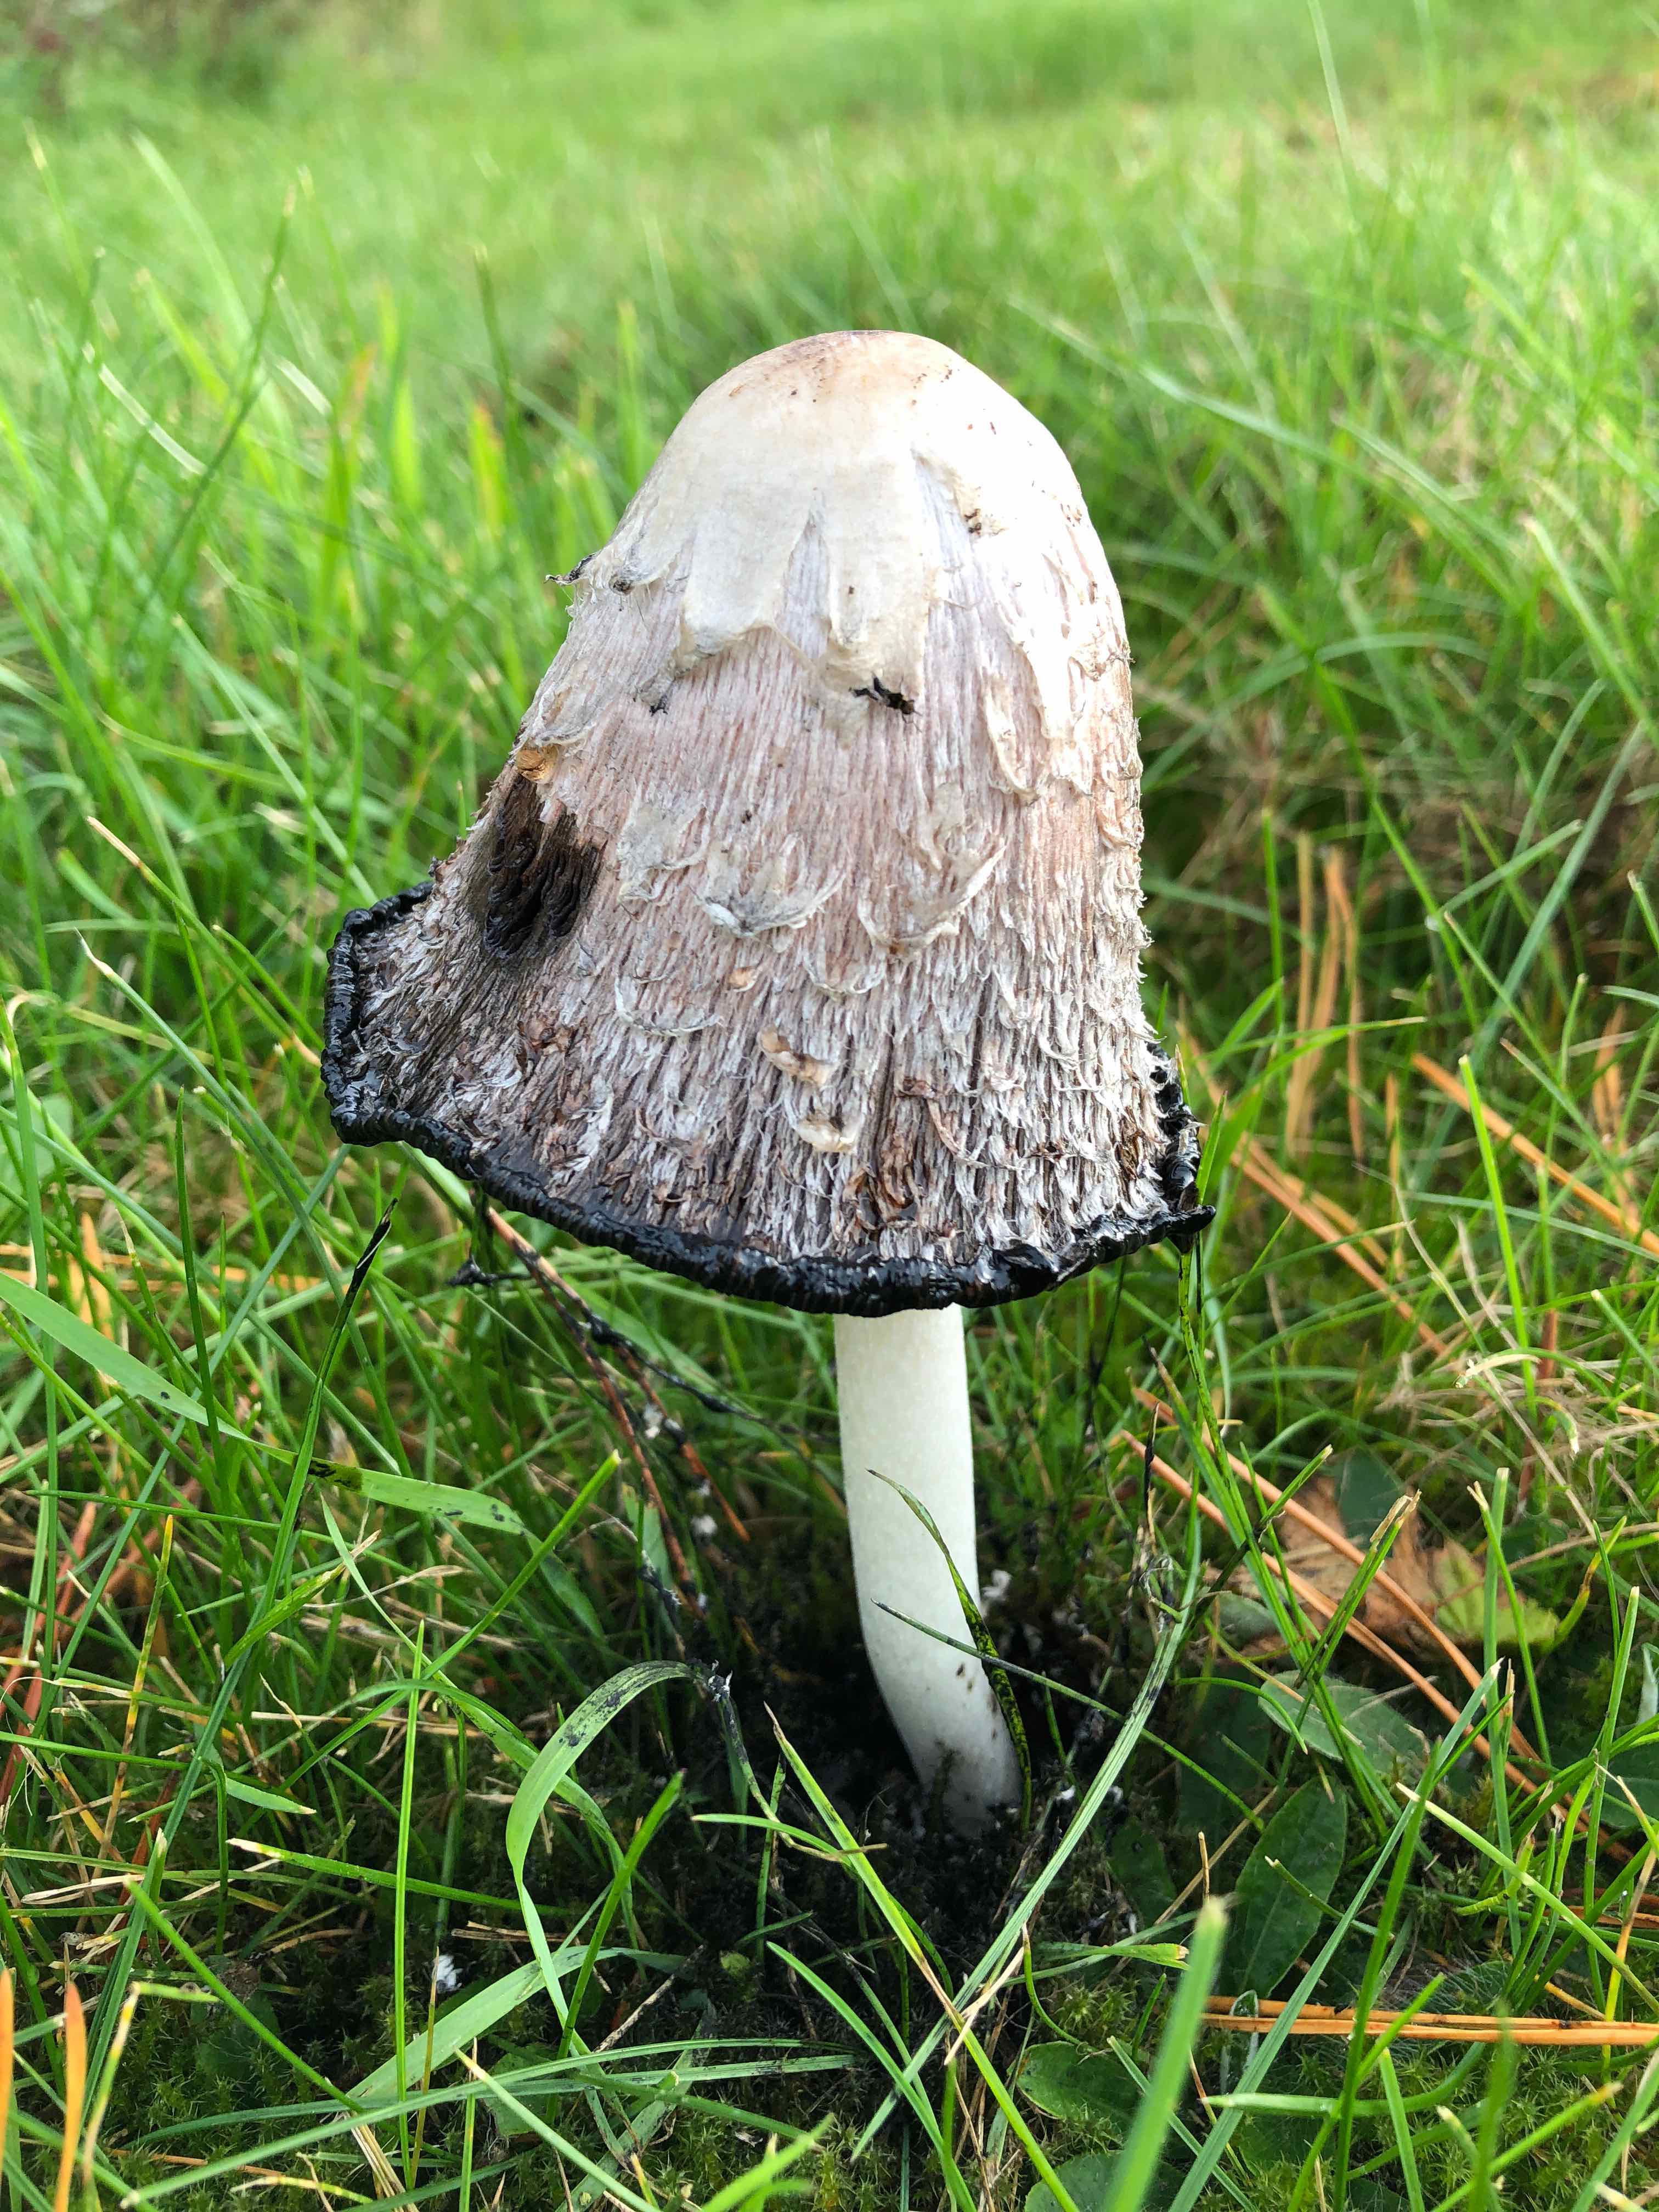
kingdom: Fungi
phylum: Basidiomycota
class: Agaricomycetes
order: Agaricales
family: Agaricaceae
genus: Coprinus
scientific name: Coprinus comatus
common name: stor parykhat
